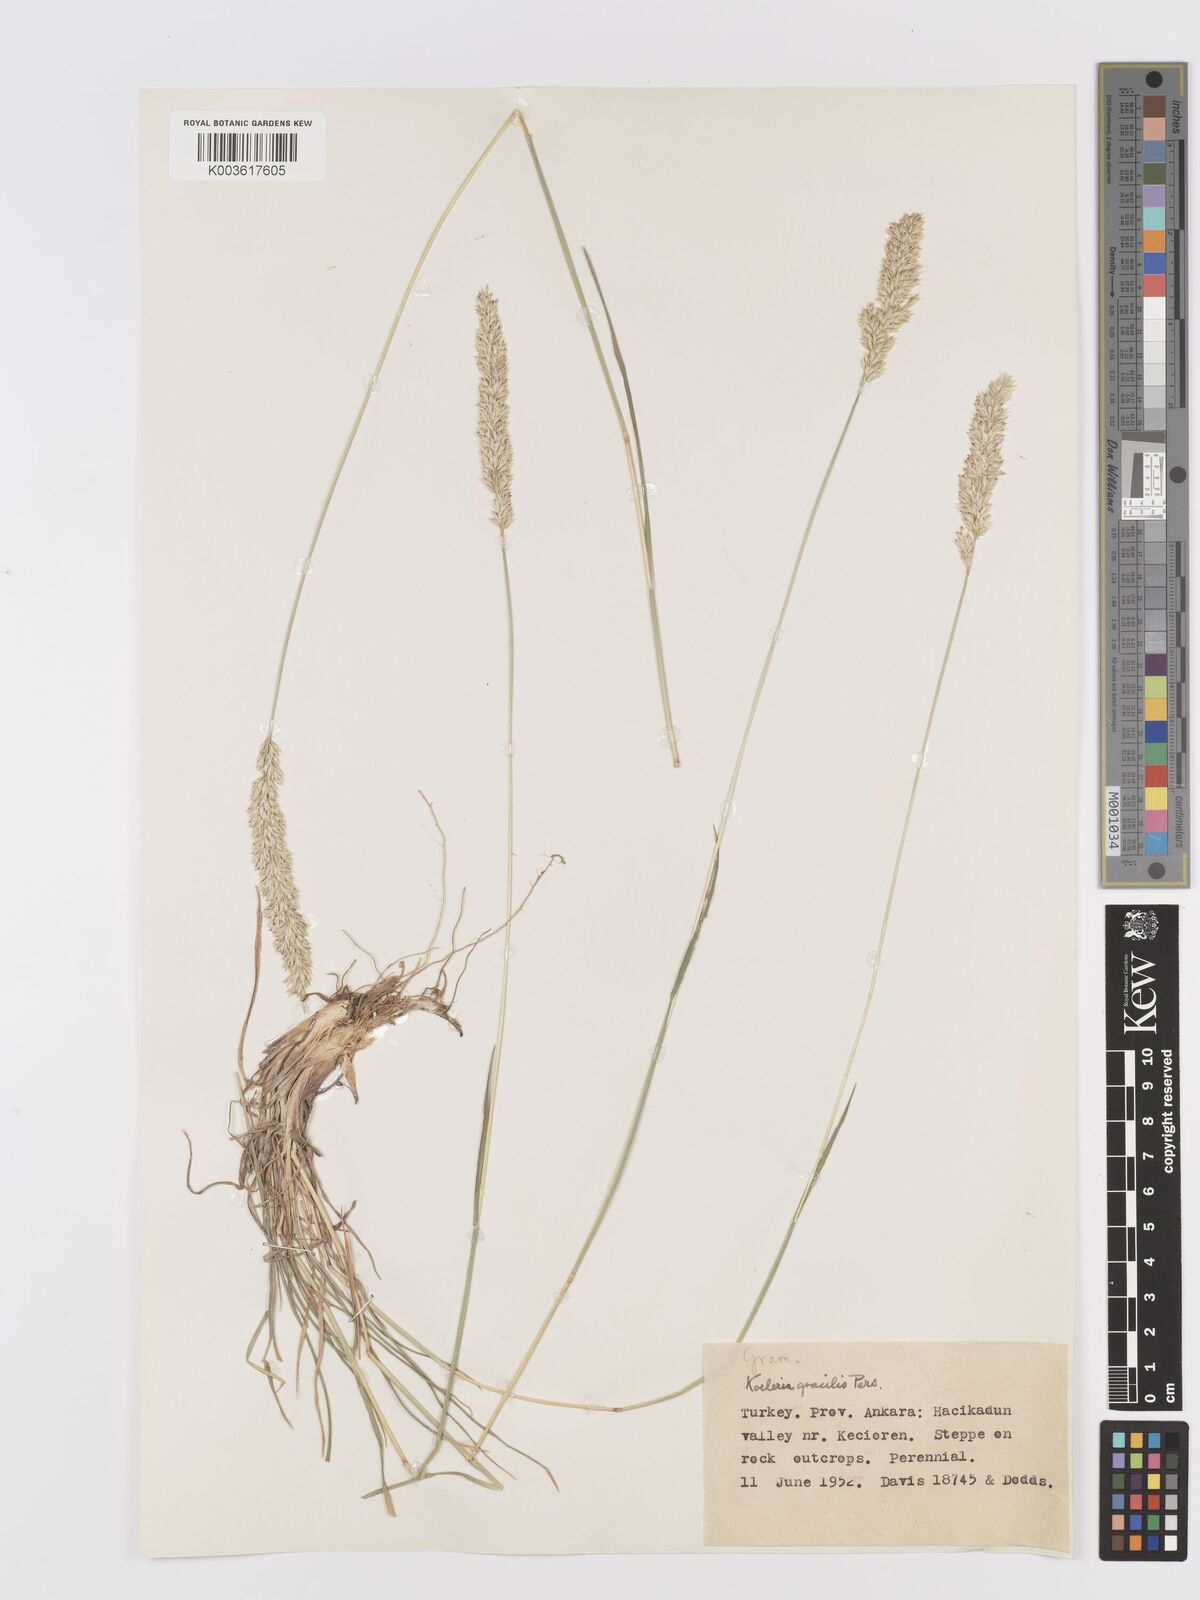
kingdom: Plantae
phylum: Tracheophyta
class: Liliopsida
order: Poales
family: Poaceae
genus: Koeleria
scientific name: Koeleria macrantha
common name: Crested hair-grass
